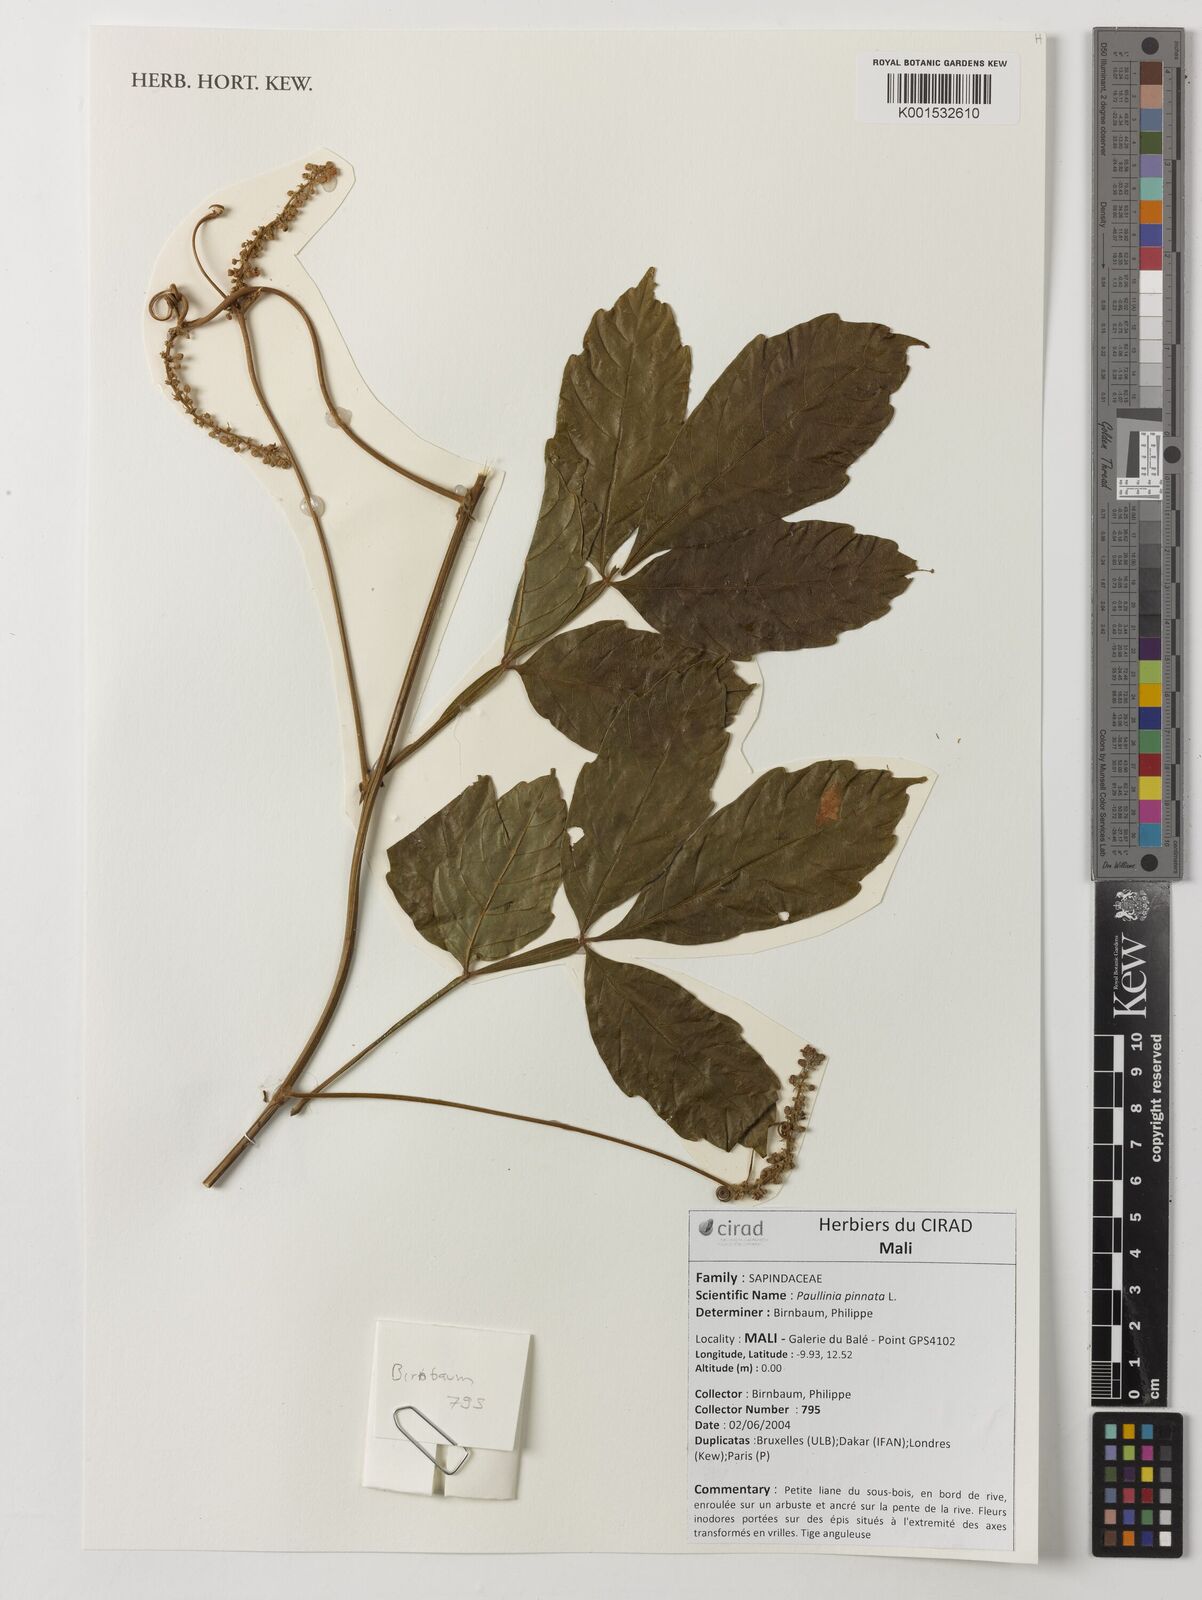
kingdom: Plantae
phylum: Tracheophyta
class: Magnoliopsida
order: Sapindales
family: Sapindaceae
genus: Paullinia
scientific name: Paullinia pinnata
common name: Barbasco
